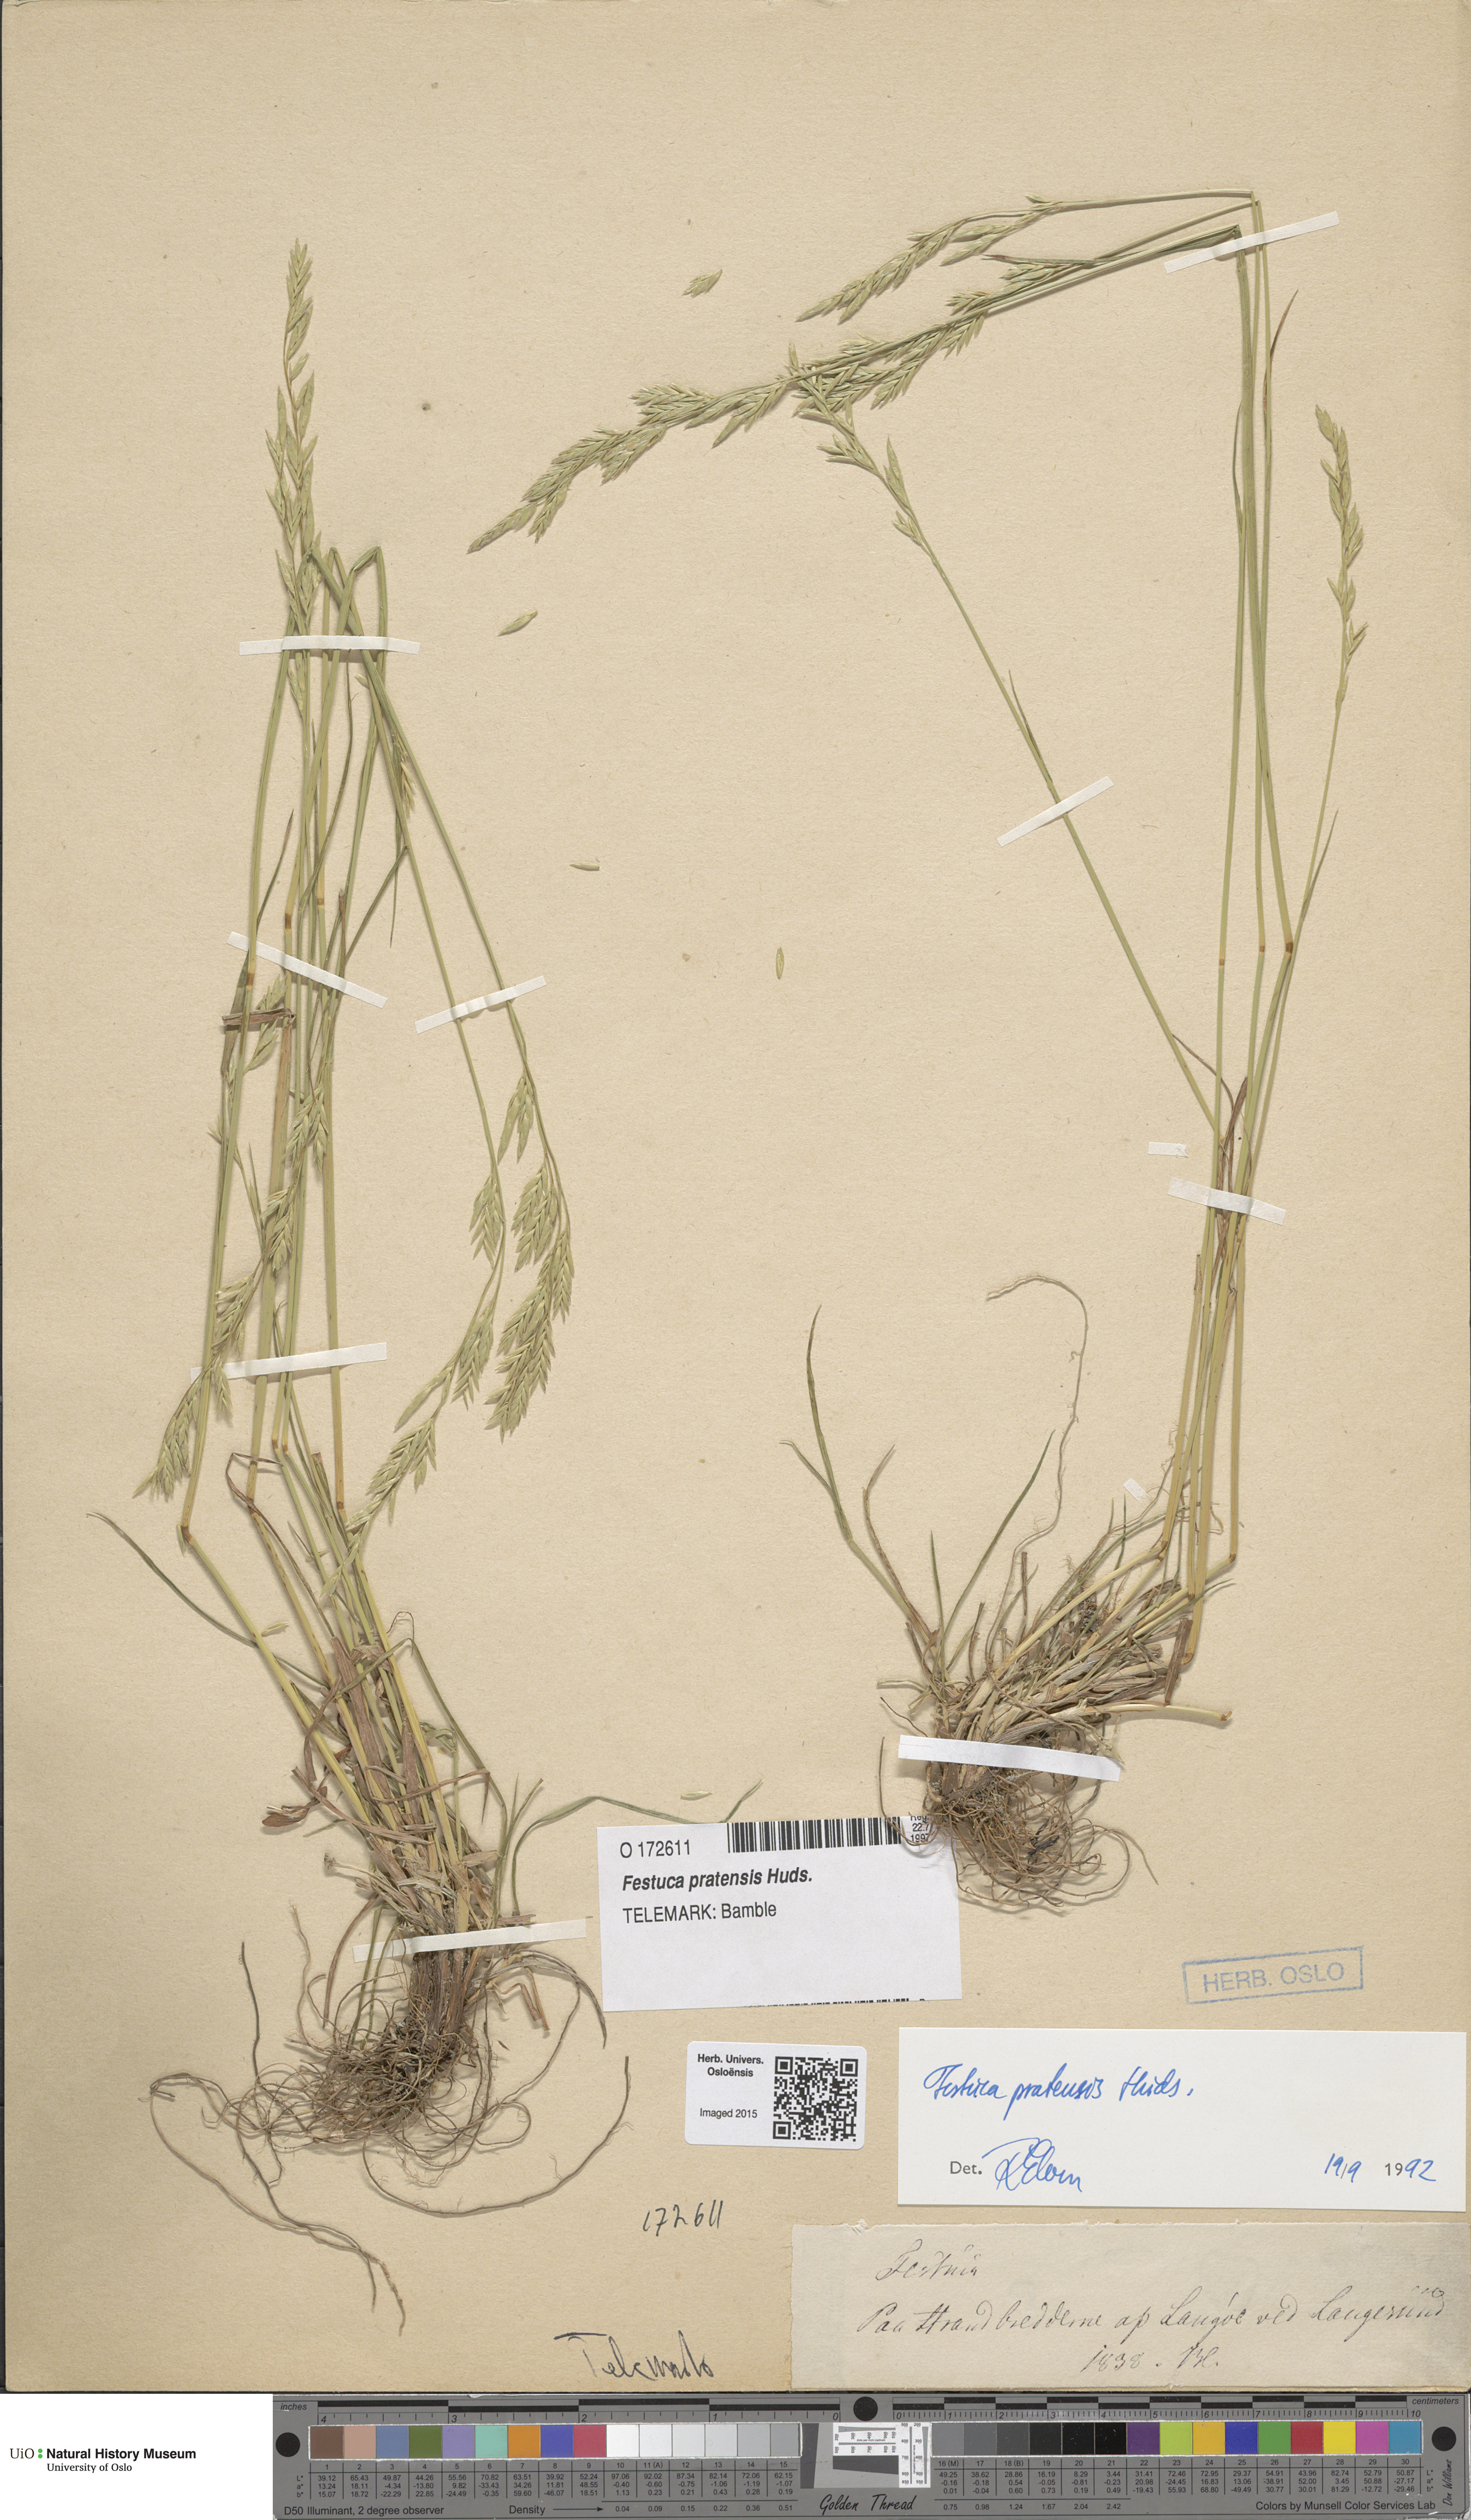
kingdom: Plantae
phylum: Tracheophyta
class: Liliopsida
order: Poales
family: Poaceae
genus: Lolium
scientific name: Lolium pratense
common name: Dover grass
